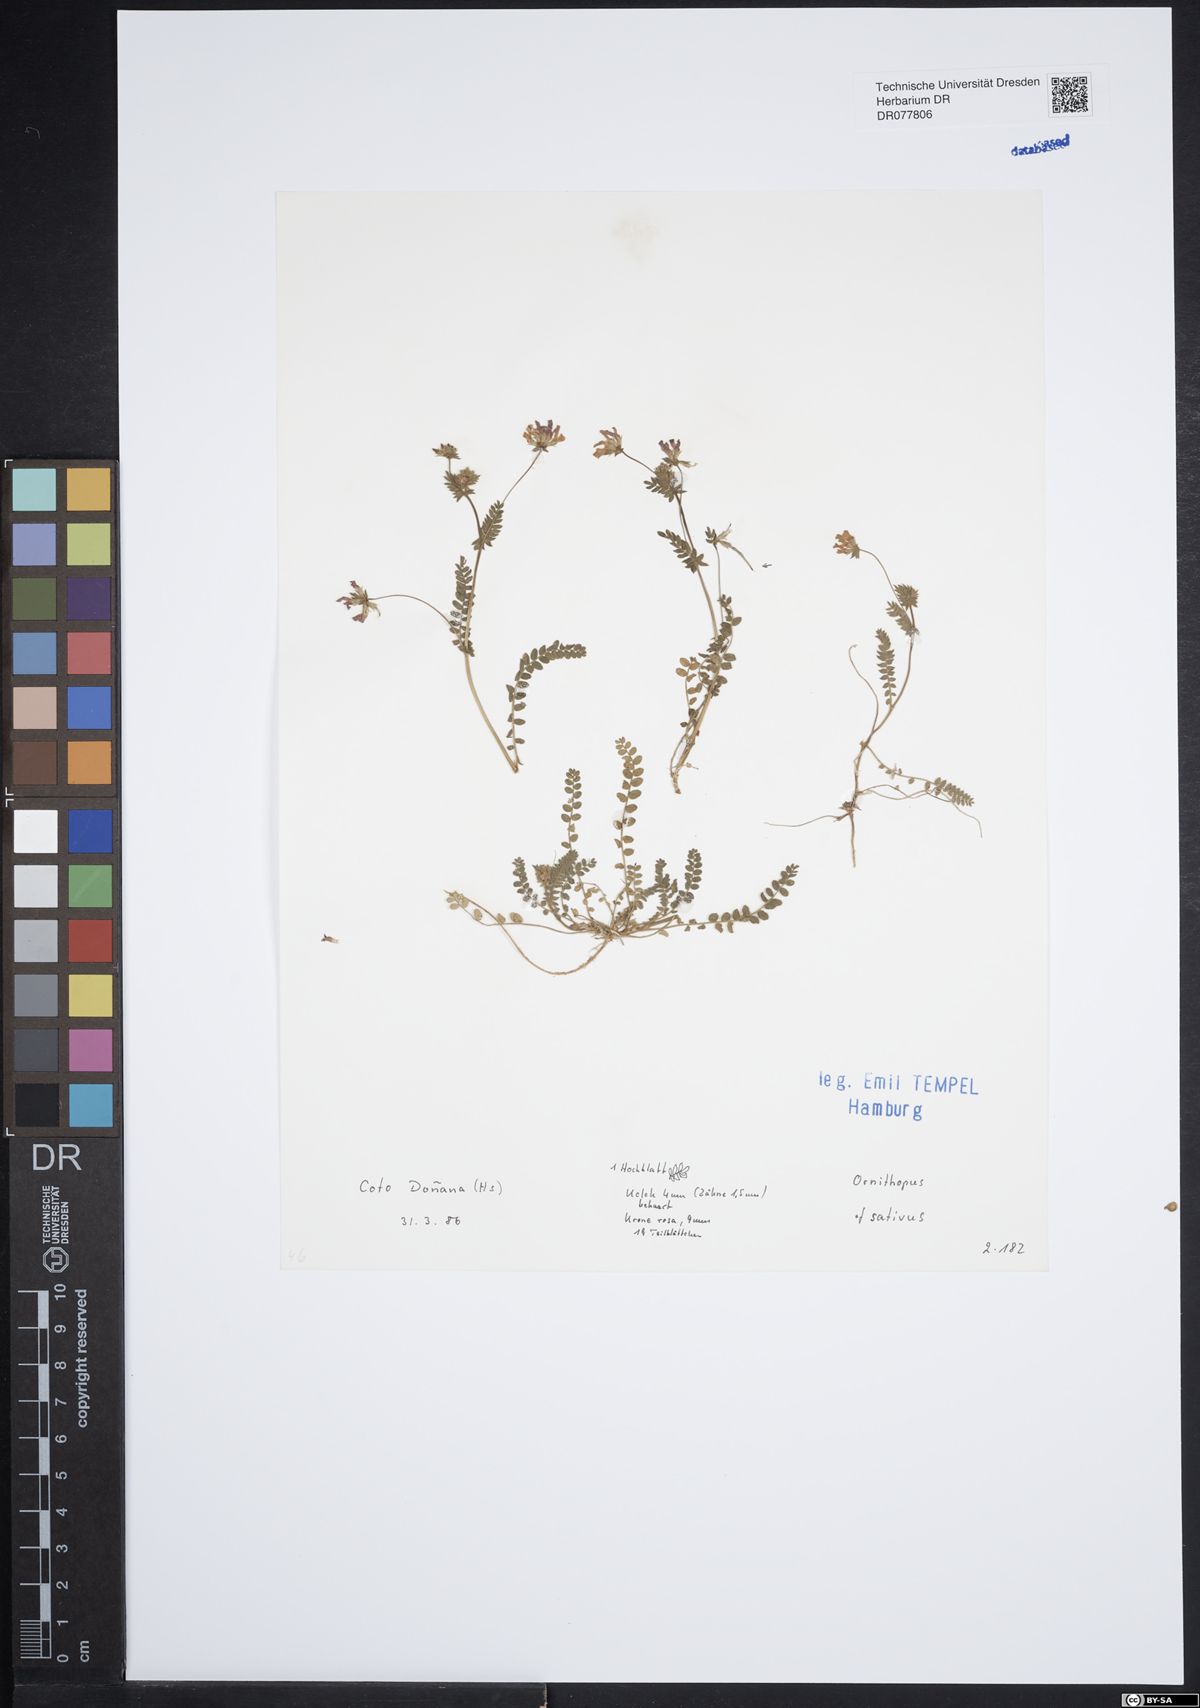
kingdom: Plantae
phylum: Tracheophyta
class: Magnoliopsida
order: Fabales
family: Fabaceae
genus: Ornithopus
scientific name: Ornithopus sativus
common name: Serradella
